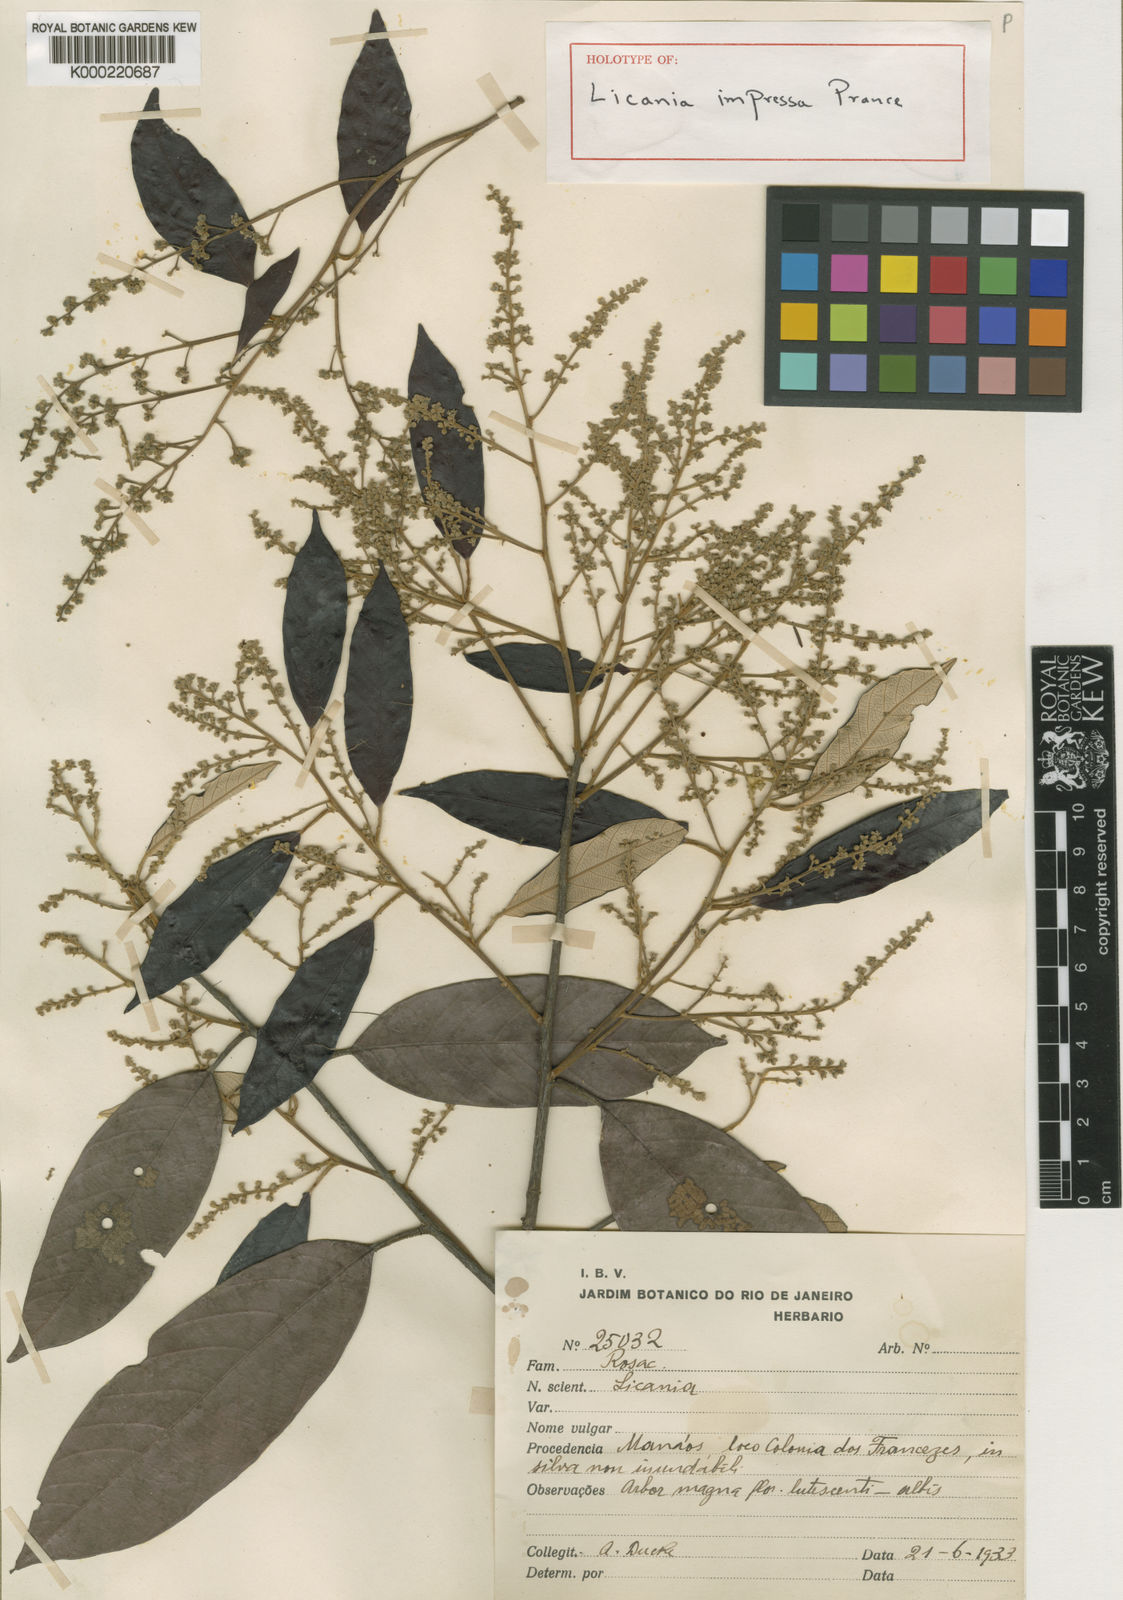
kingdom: Plantae
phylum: Tracheophyta
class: Magnoliopsida
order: Malpighiales
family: Chrysobalanaceae
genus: Licania
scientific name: Licania impressa
